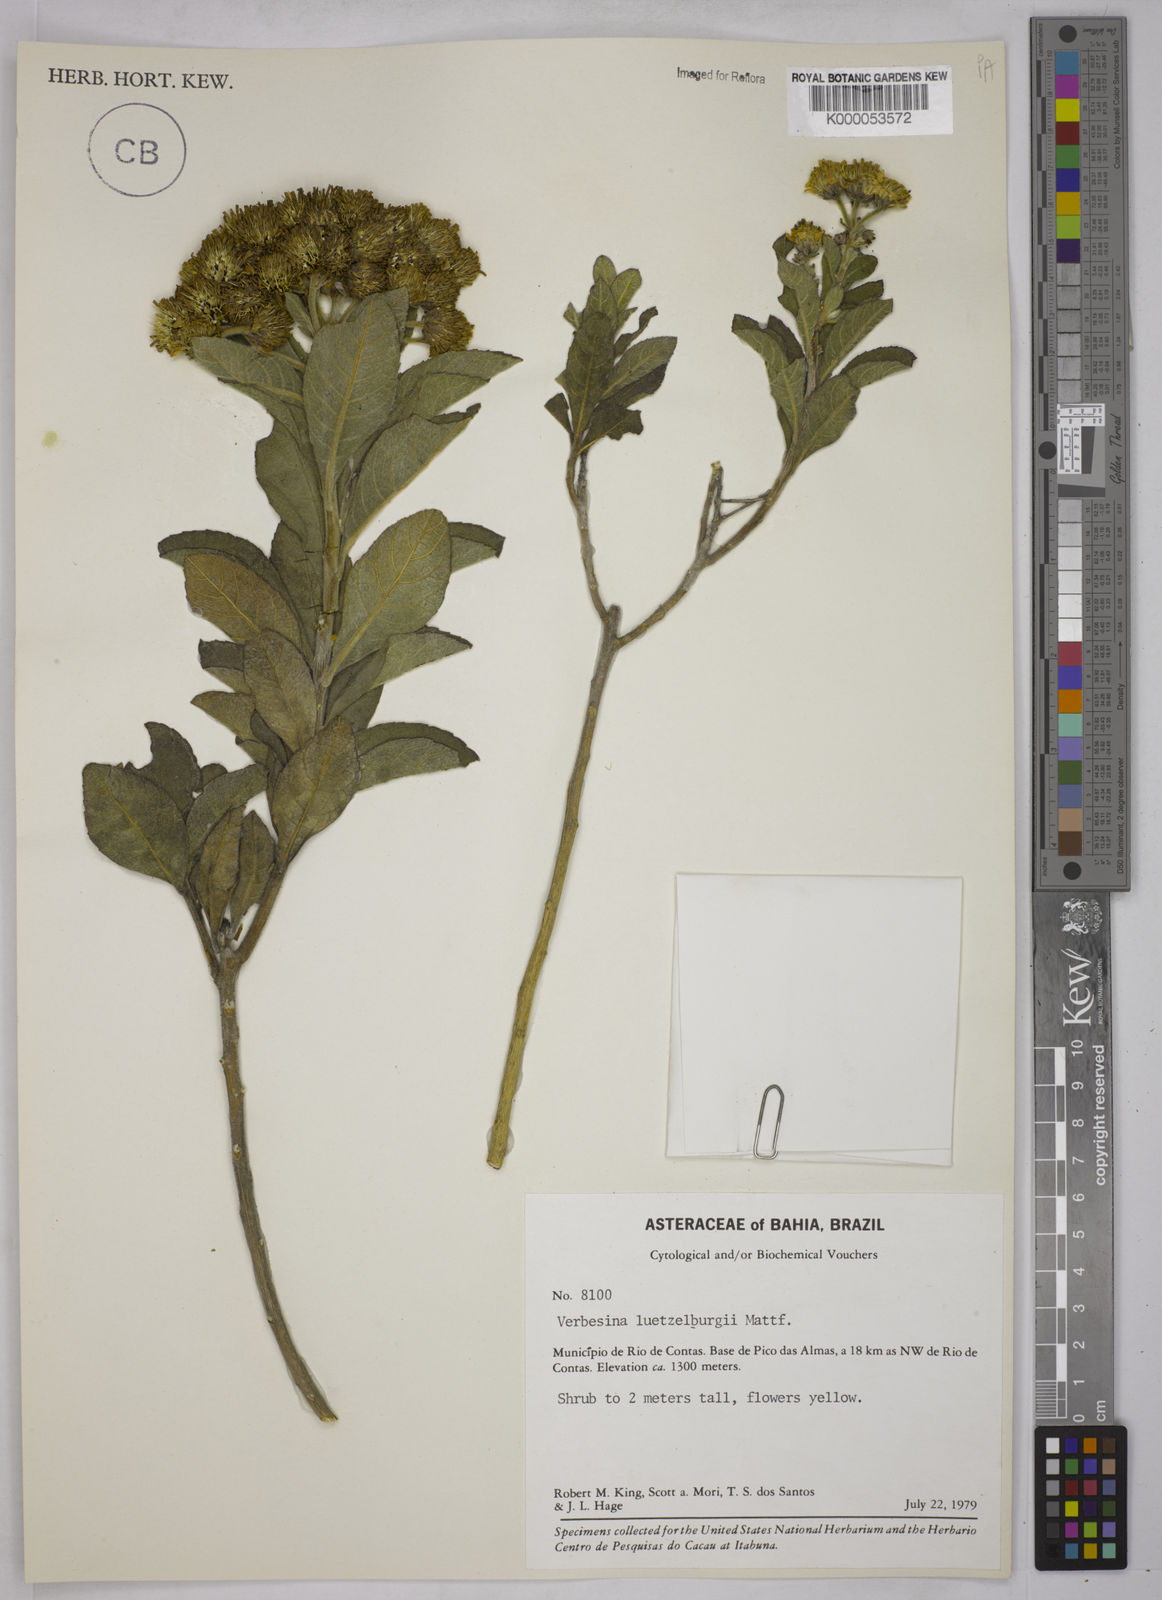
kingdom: Plantae
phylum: Tracheophyta
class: Magnoliopsida
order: Asterales
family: Asteraceae
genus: Verbesina
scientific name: Verbesina luetzelburgii
